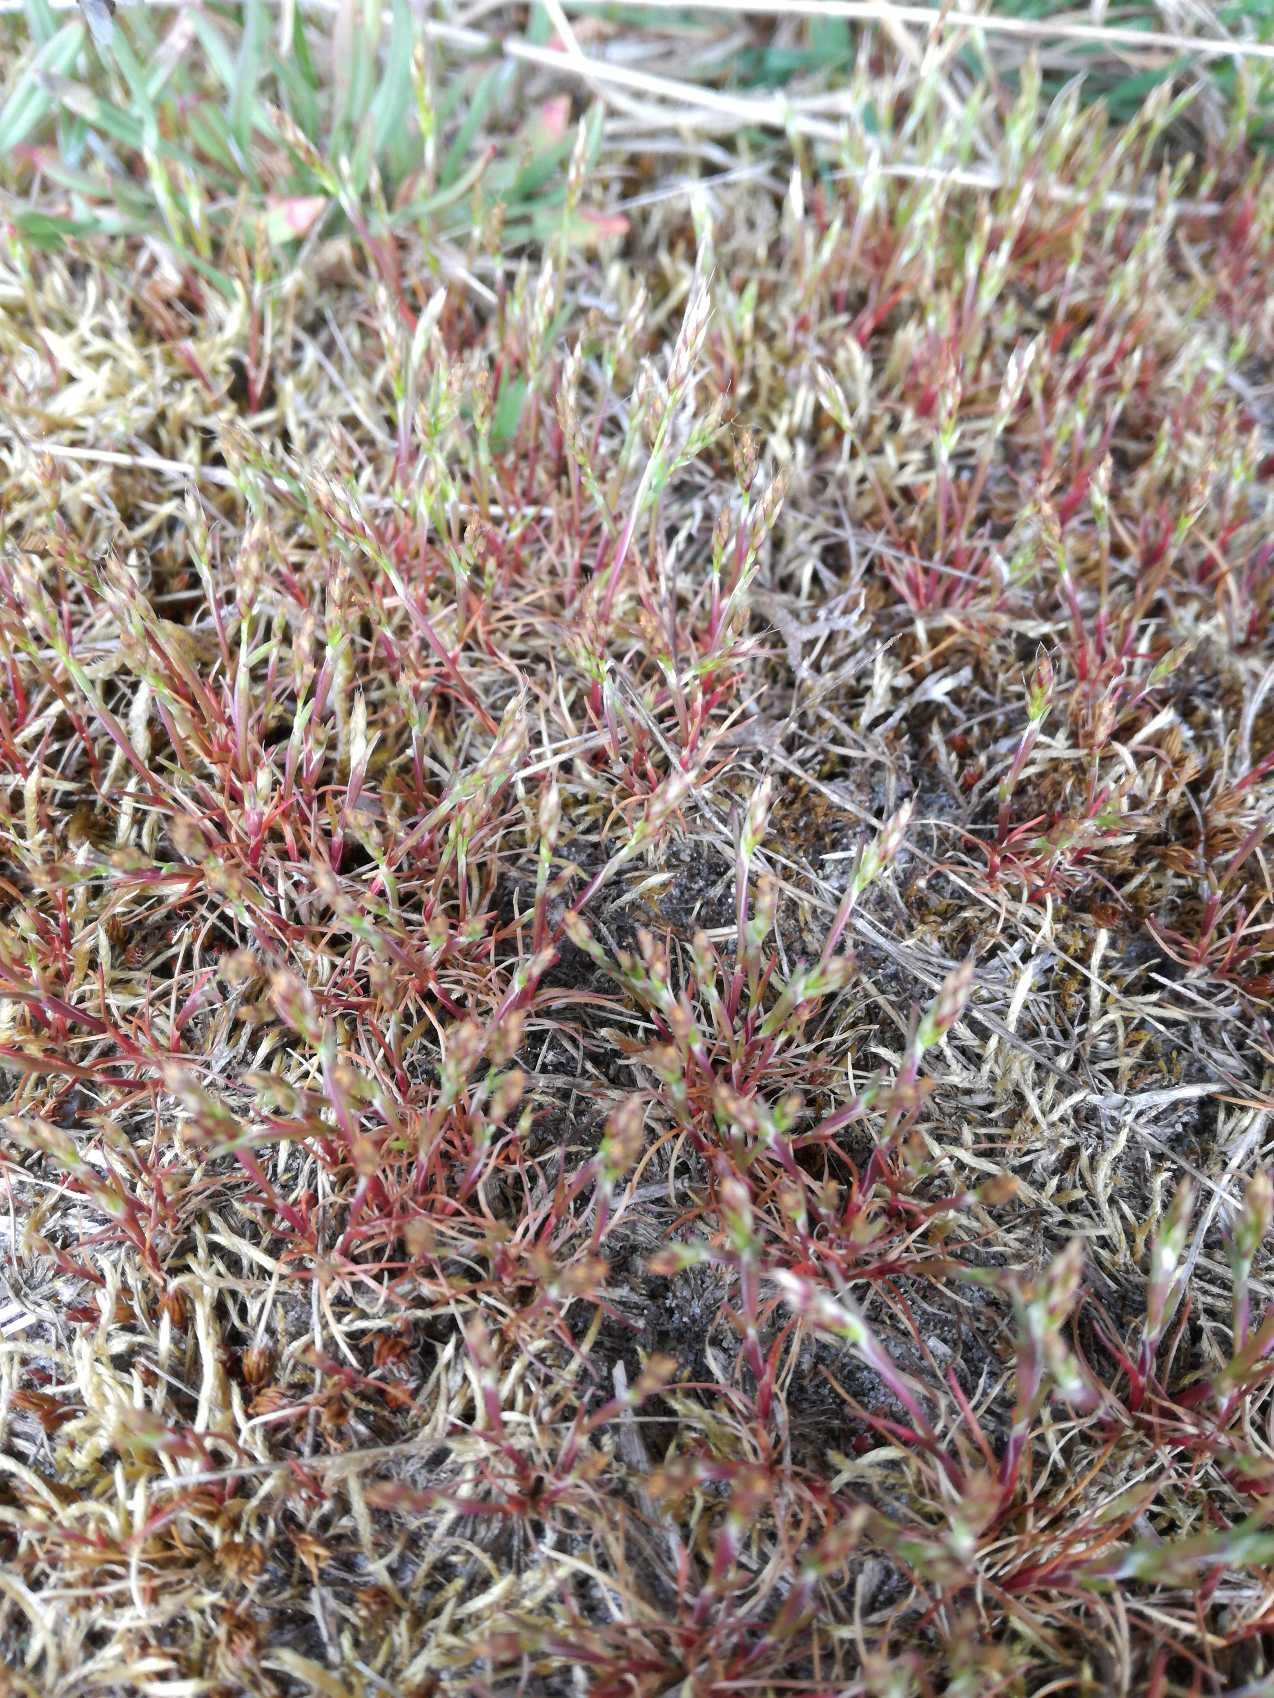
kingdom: Plantae
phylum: Tracheophyta
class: Liliopsida
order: Poales
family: Poaceae
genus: Aira
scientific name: Aira praecox
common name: Tidlig dværgbunke
